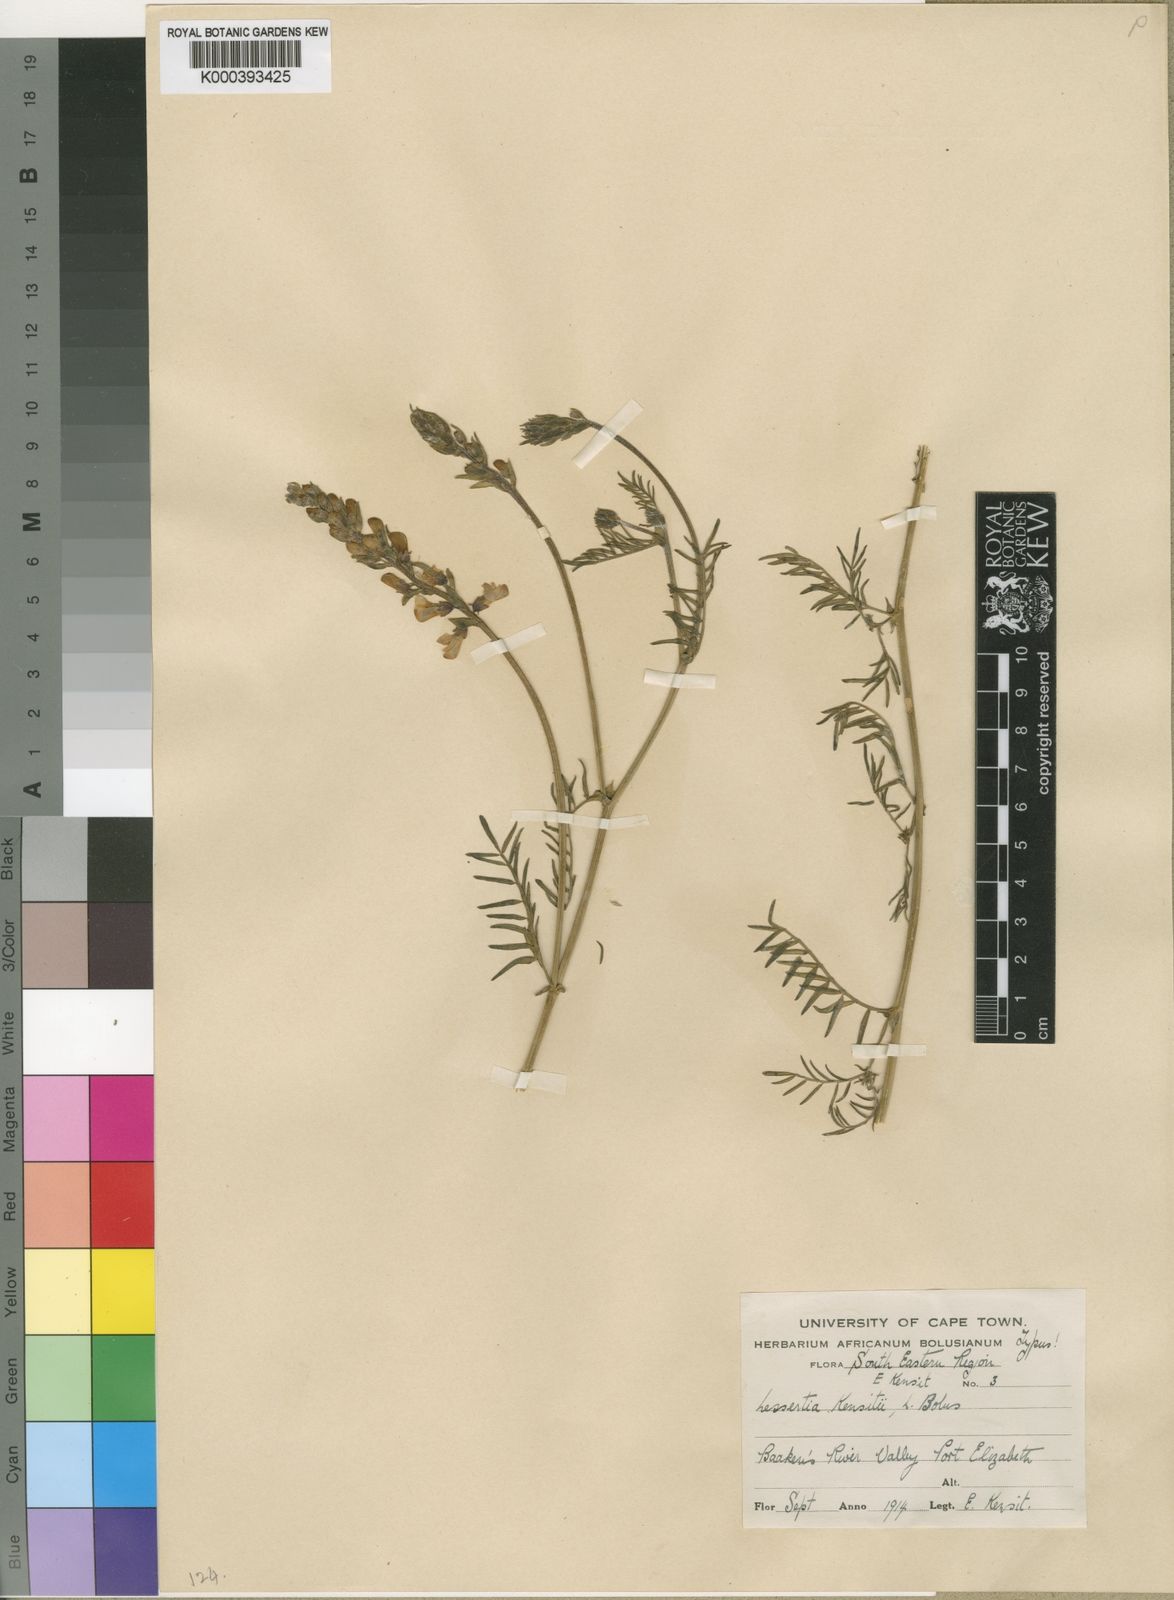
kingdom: Plantae
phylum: Tracheophyta
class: Magnoliopsida
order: Fabales
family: Fabaceae
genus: Lessertia
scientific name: Lessertia kensitii
